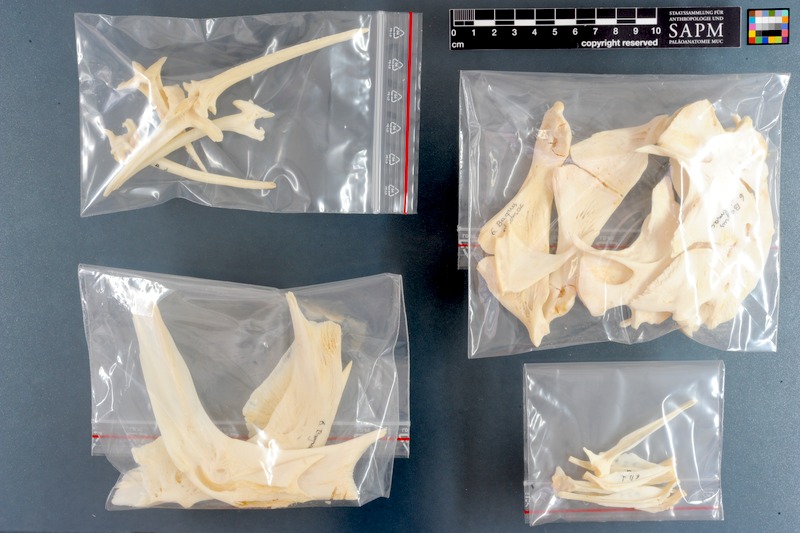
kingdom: Animalia
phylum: Chordata
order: Siluriformes
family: Bagridae
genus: Bagrus
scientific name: Bagrus docmak
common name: Silver catfish
